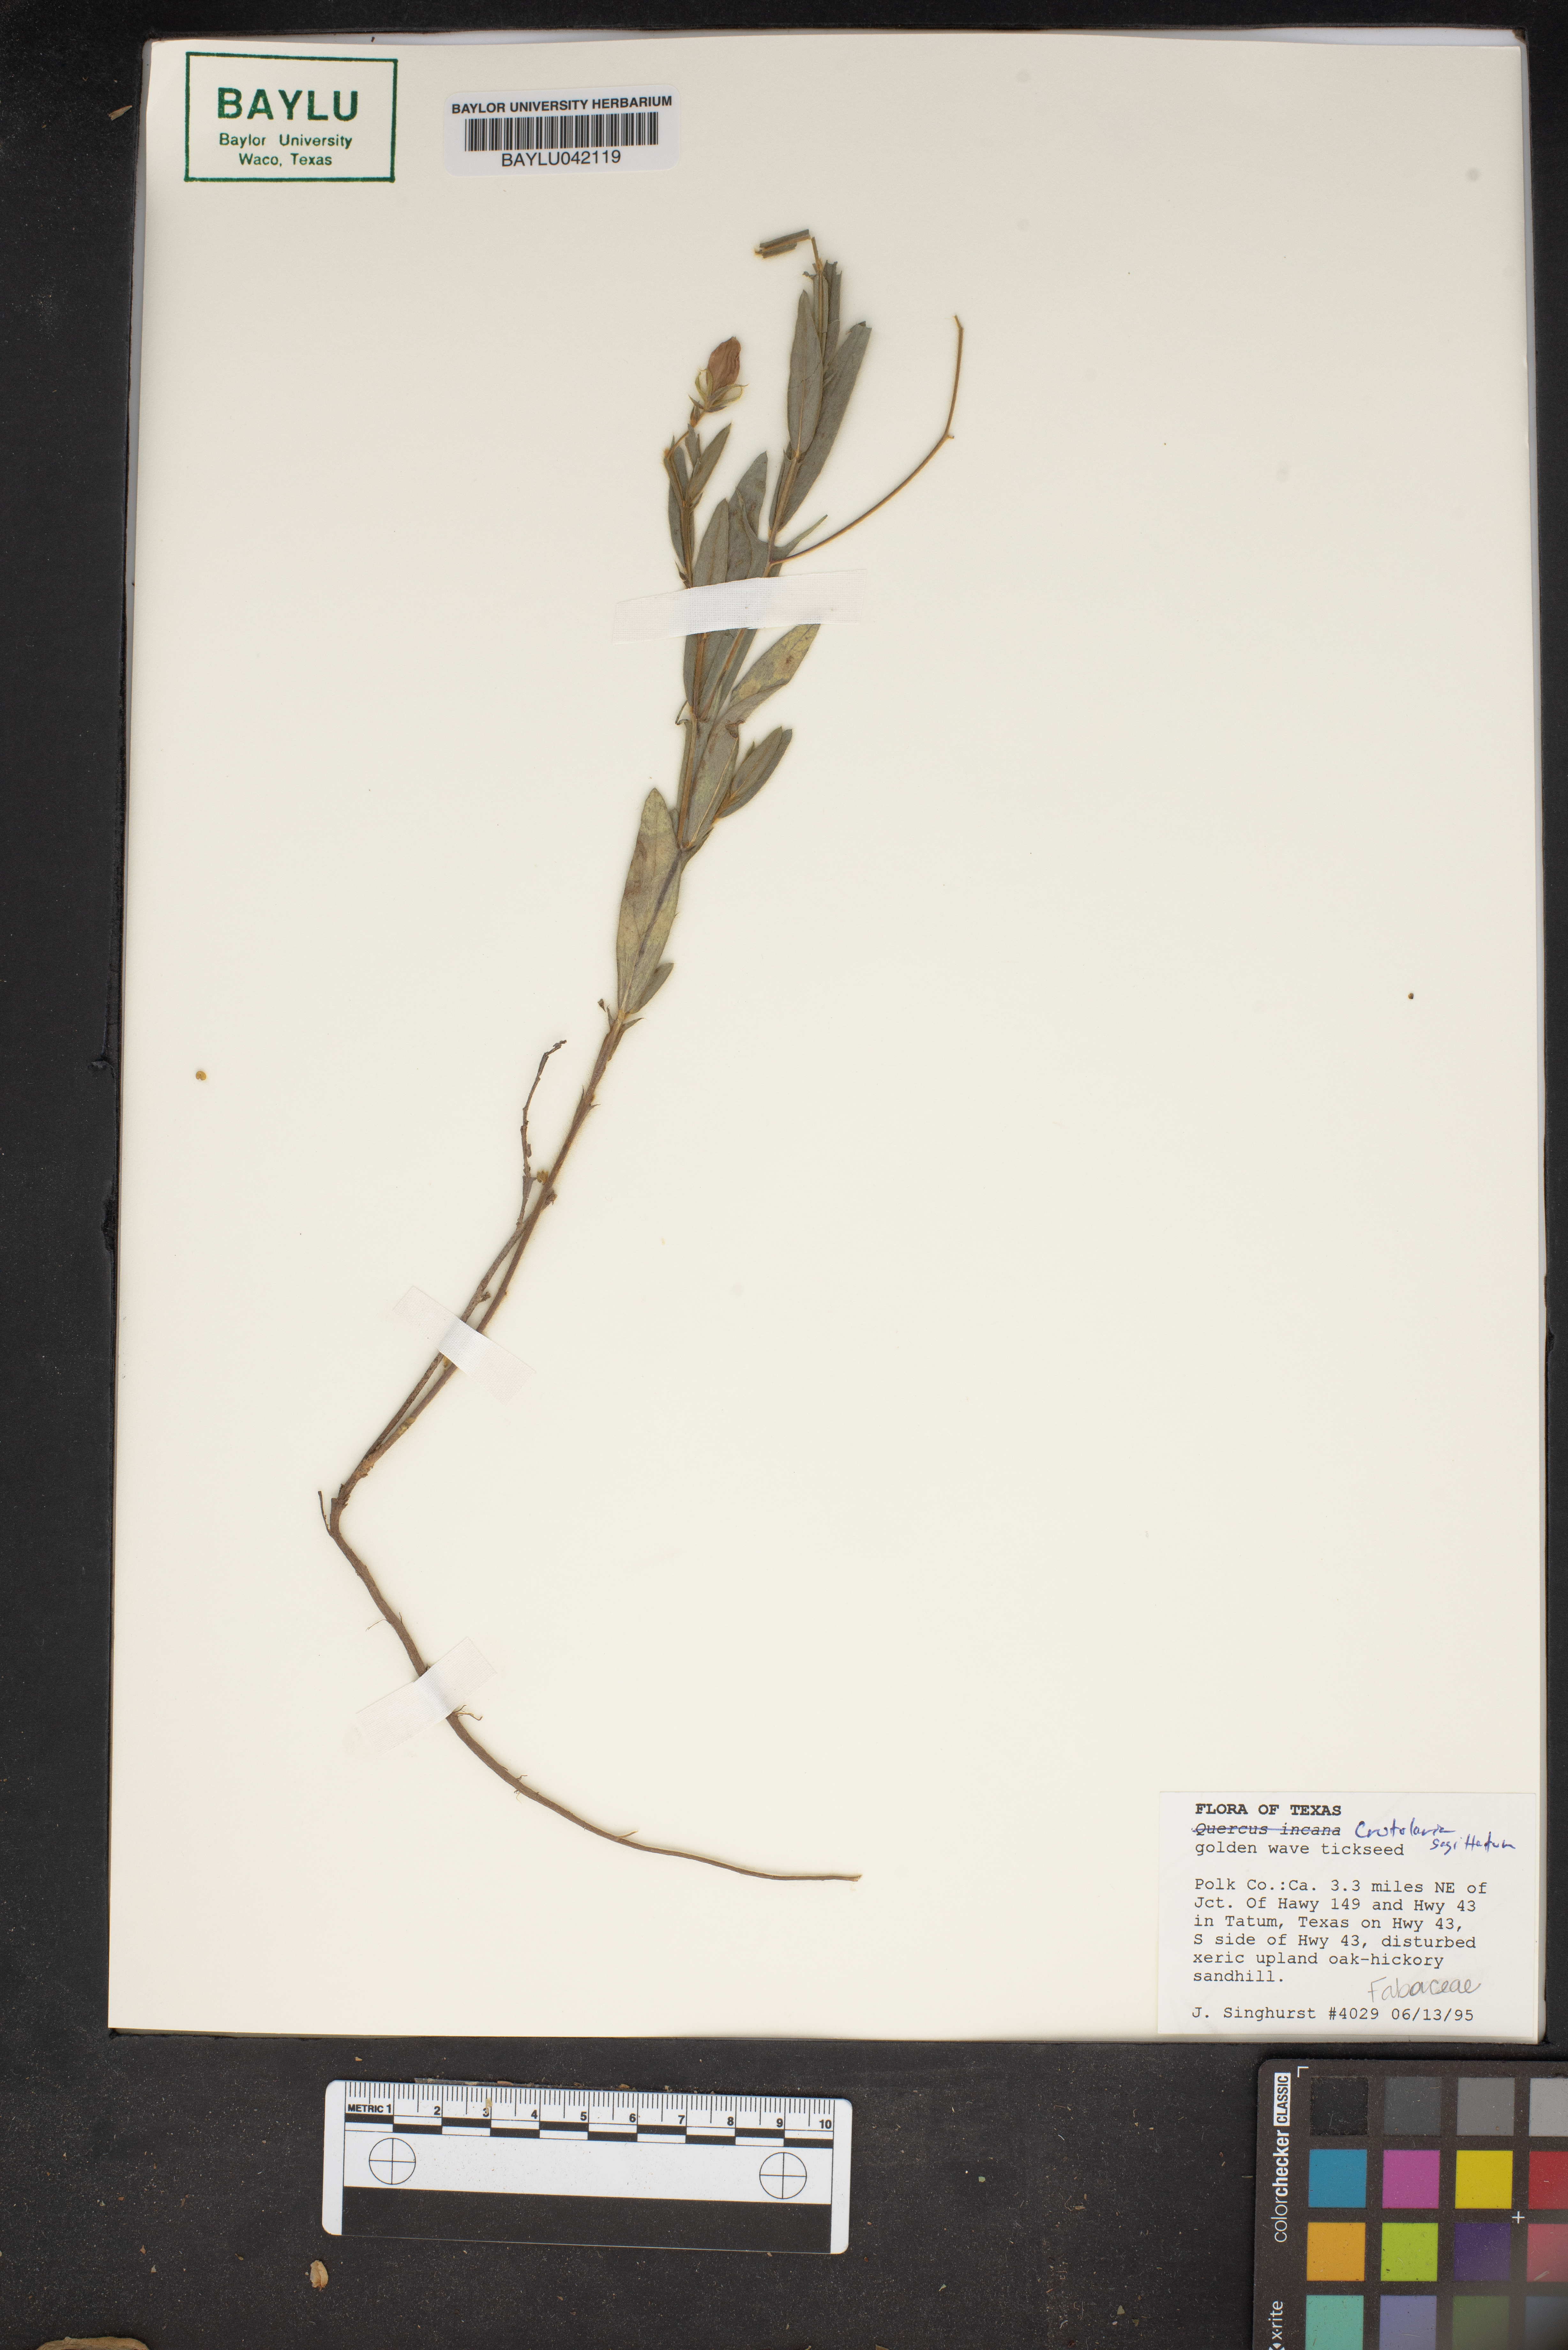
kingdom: Plantae
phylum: Tracheophyta
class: Magnoliopsida
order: Fabales
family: Fabaceae
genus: Crotolaria
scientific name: Crotolaria
